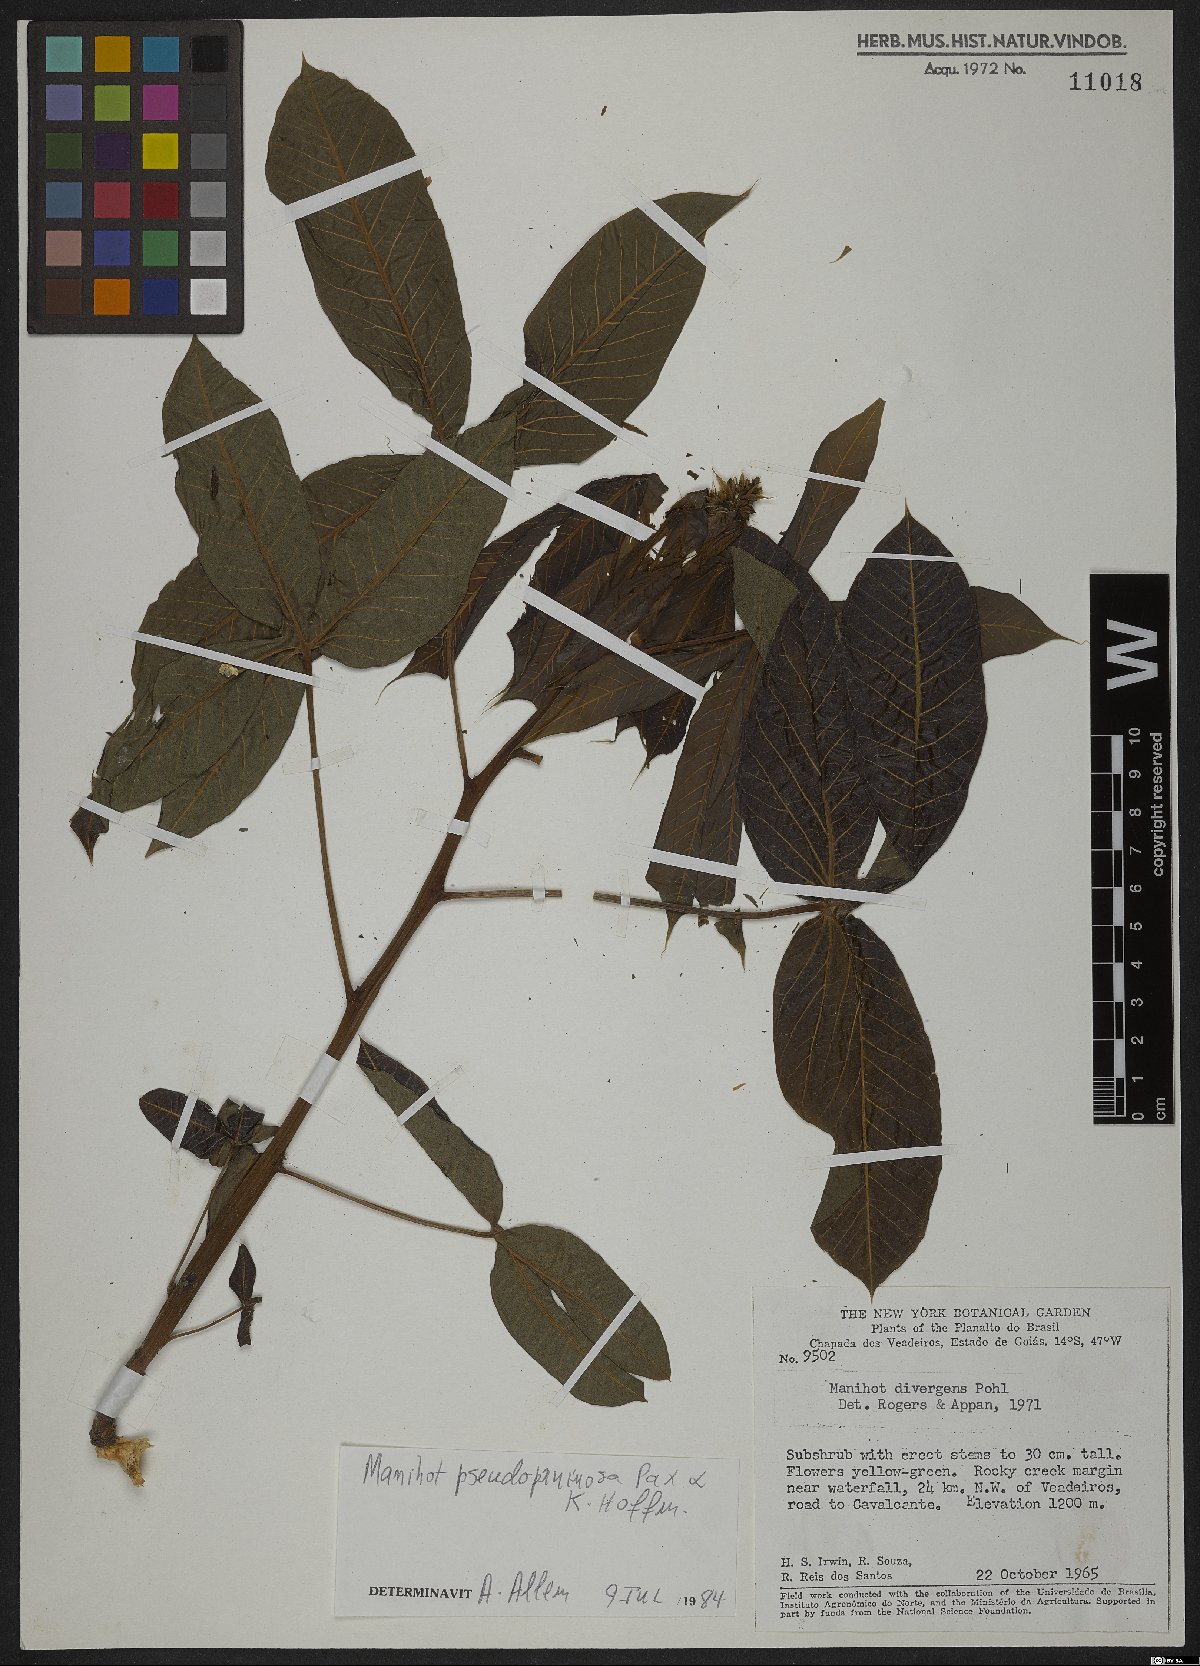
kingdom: Plantae
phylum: Tracheophyta
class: Magnoliopsida
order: Malpighiales
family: Euphorbiaceae
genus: Manihot
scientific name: Manihot pruinosa
